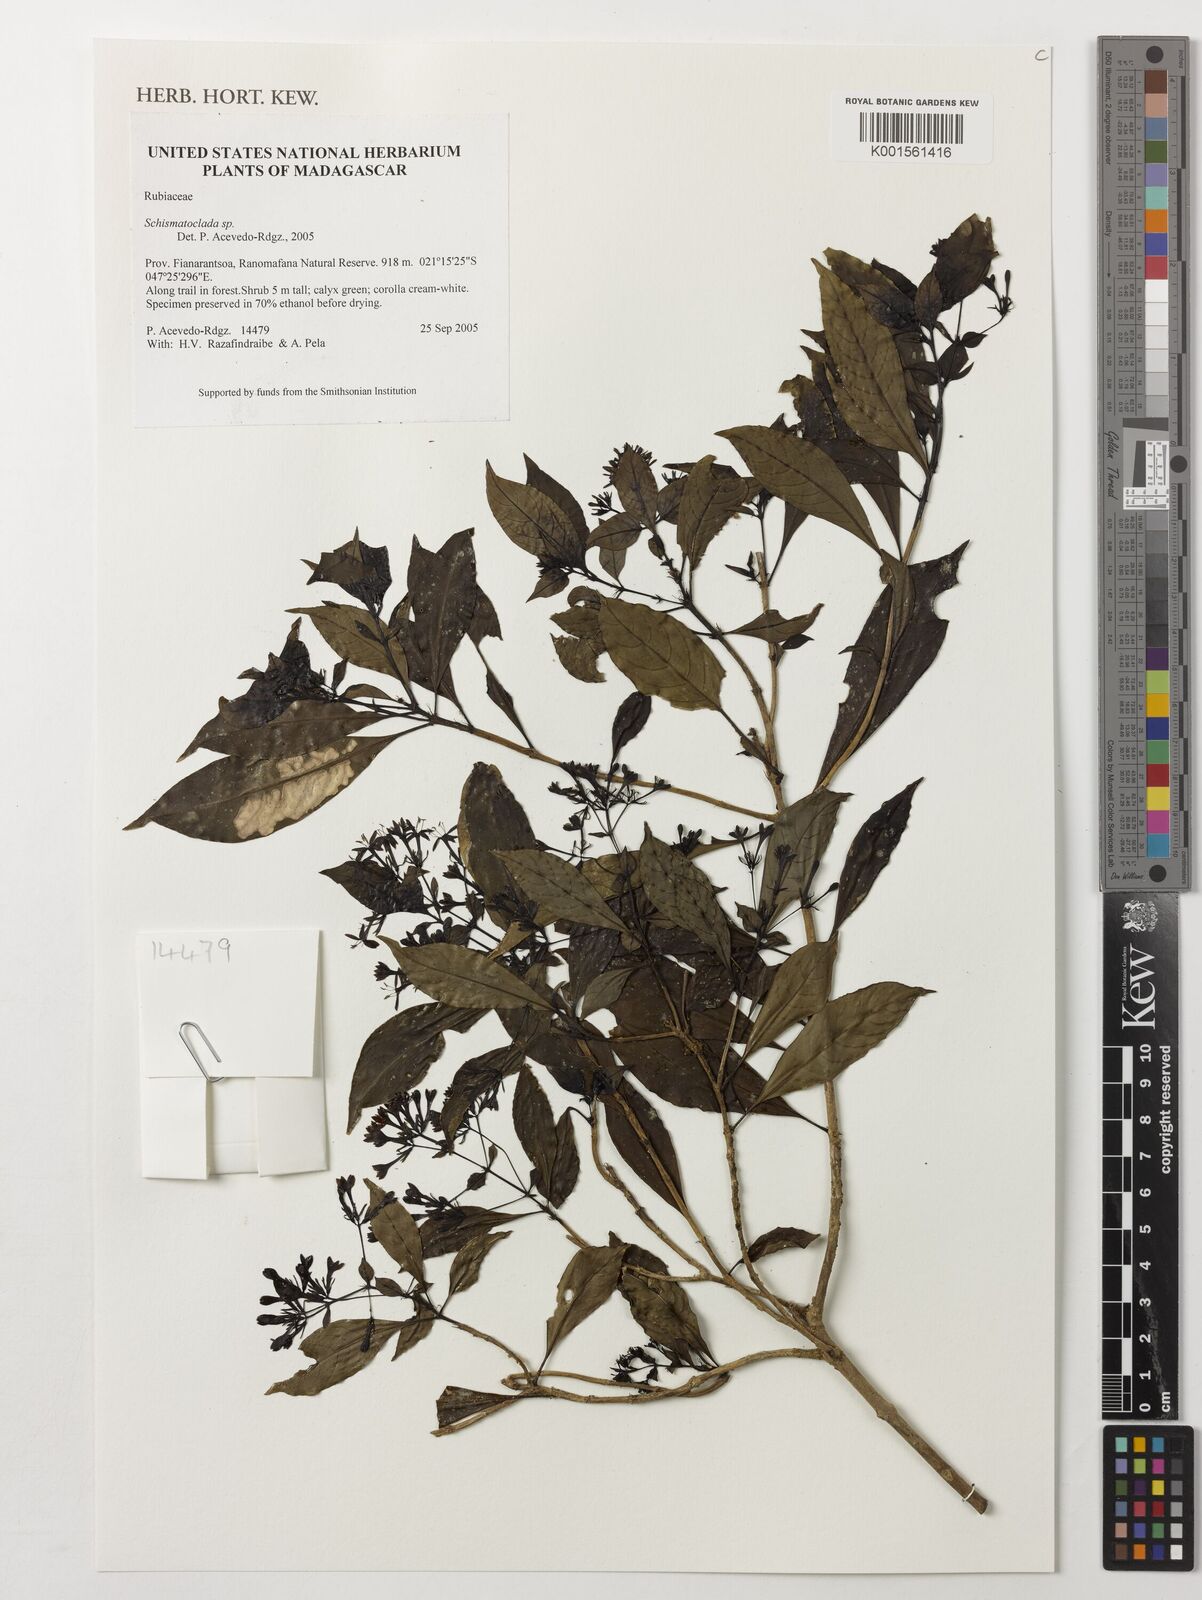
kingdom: Plantae
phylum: Tracheophyta
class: Magnoliopsida
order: Gentianales
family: Rubiaceae
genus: Schismatoclada
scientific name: Schismatoclada
